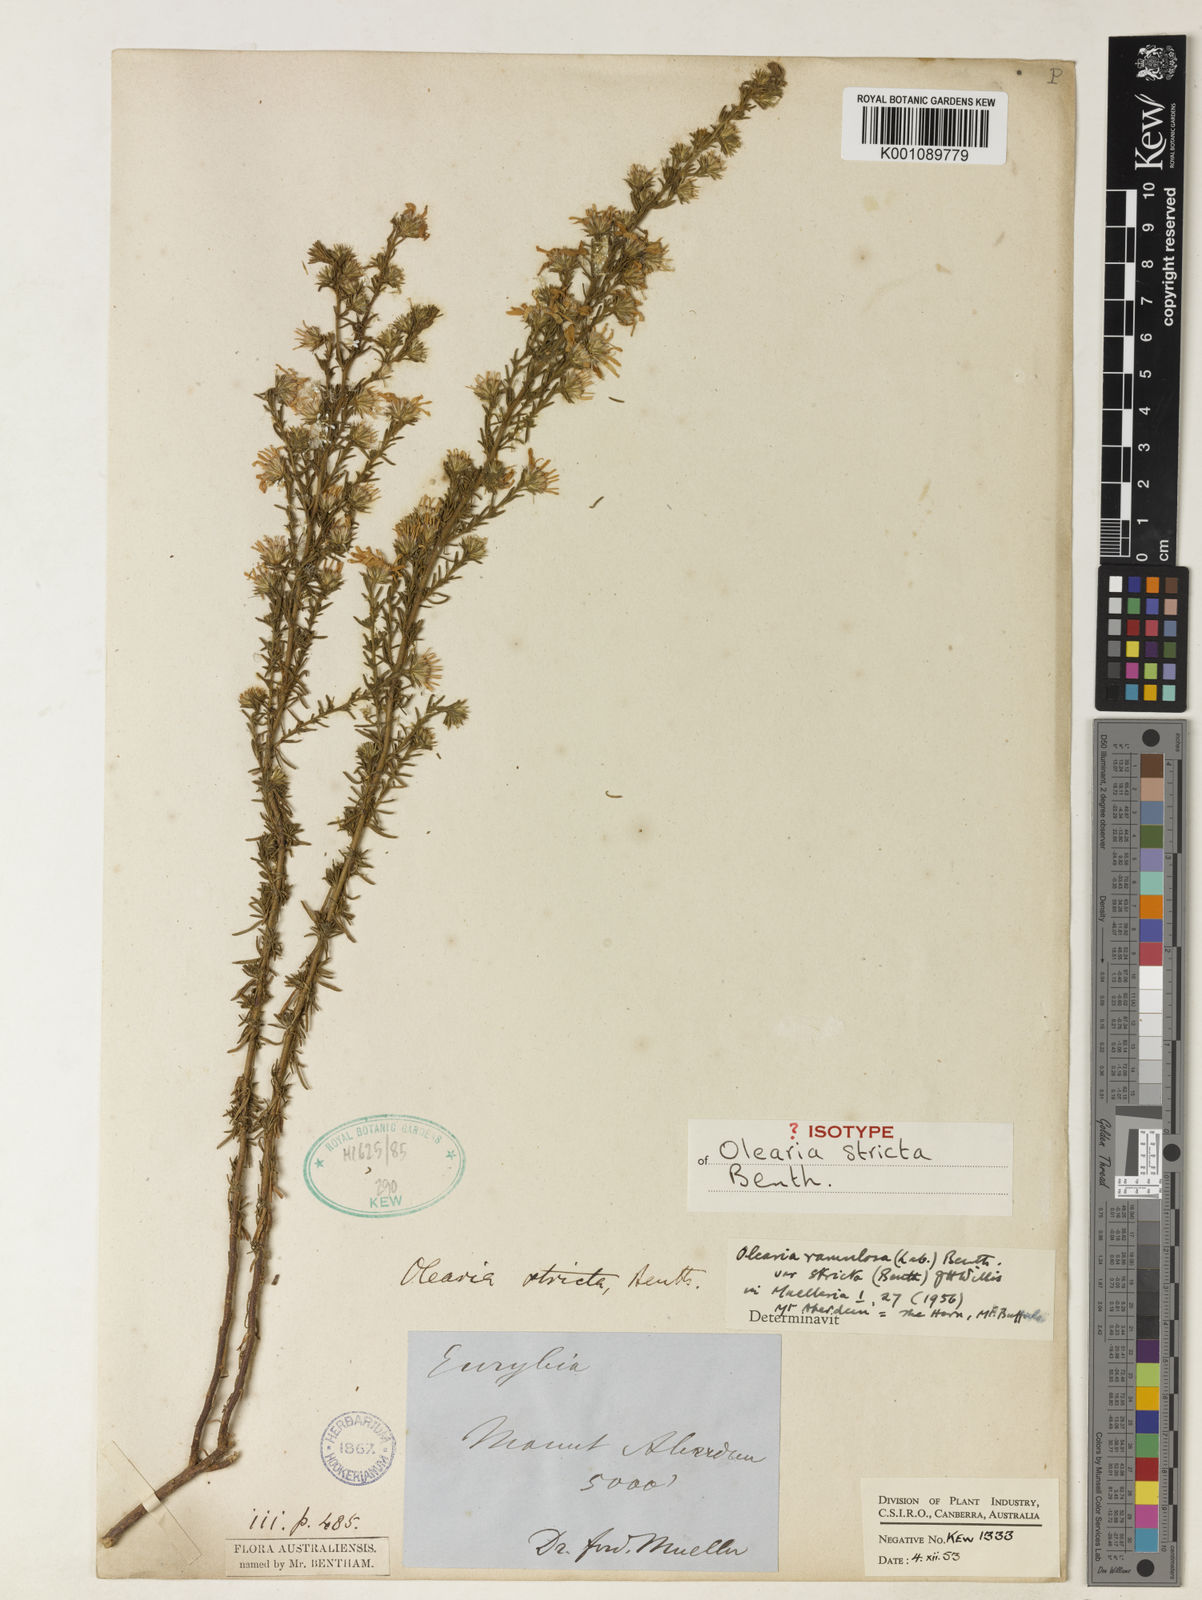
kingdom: Plantae
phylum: Tracheophyta
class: Magnoliopsida
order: Asterales
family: Asteraceae
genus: Olearia
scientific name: Olearia stricta
